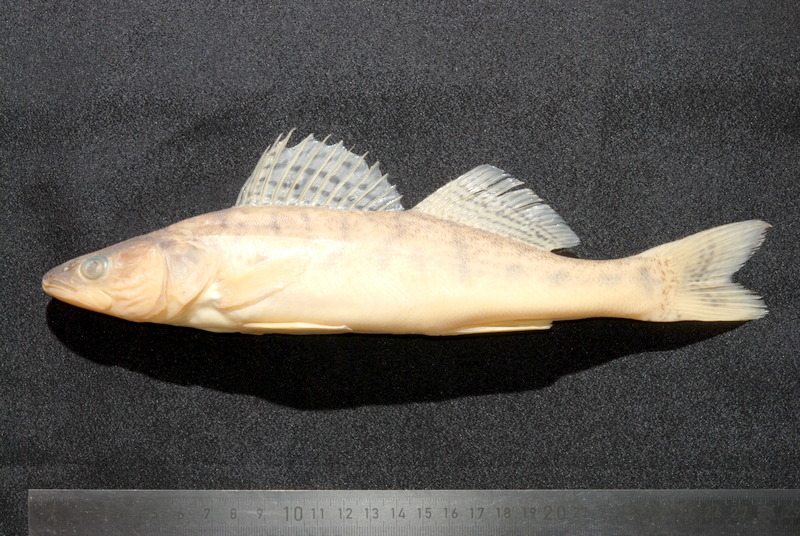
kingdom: Animalia
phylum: Chordata
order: Perciformes
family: Percidae
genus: Sander
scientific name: Sander lucioperca
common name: Pikeperch
